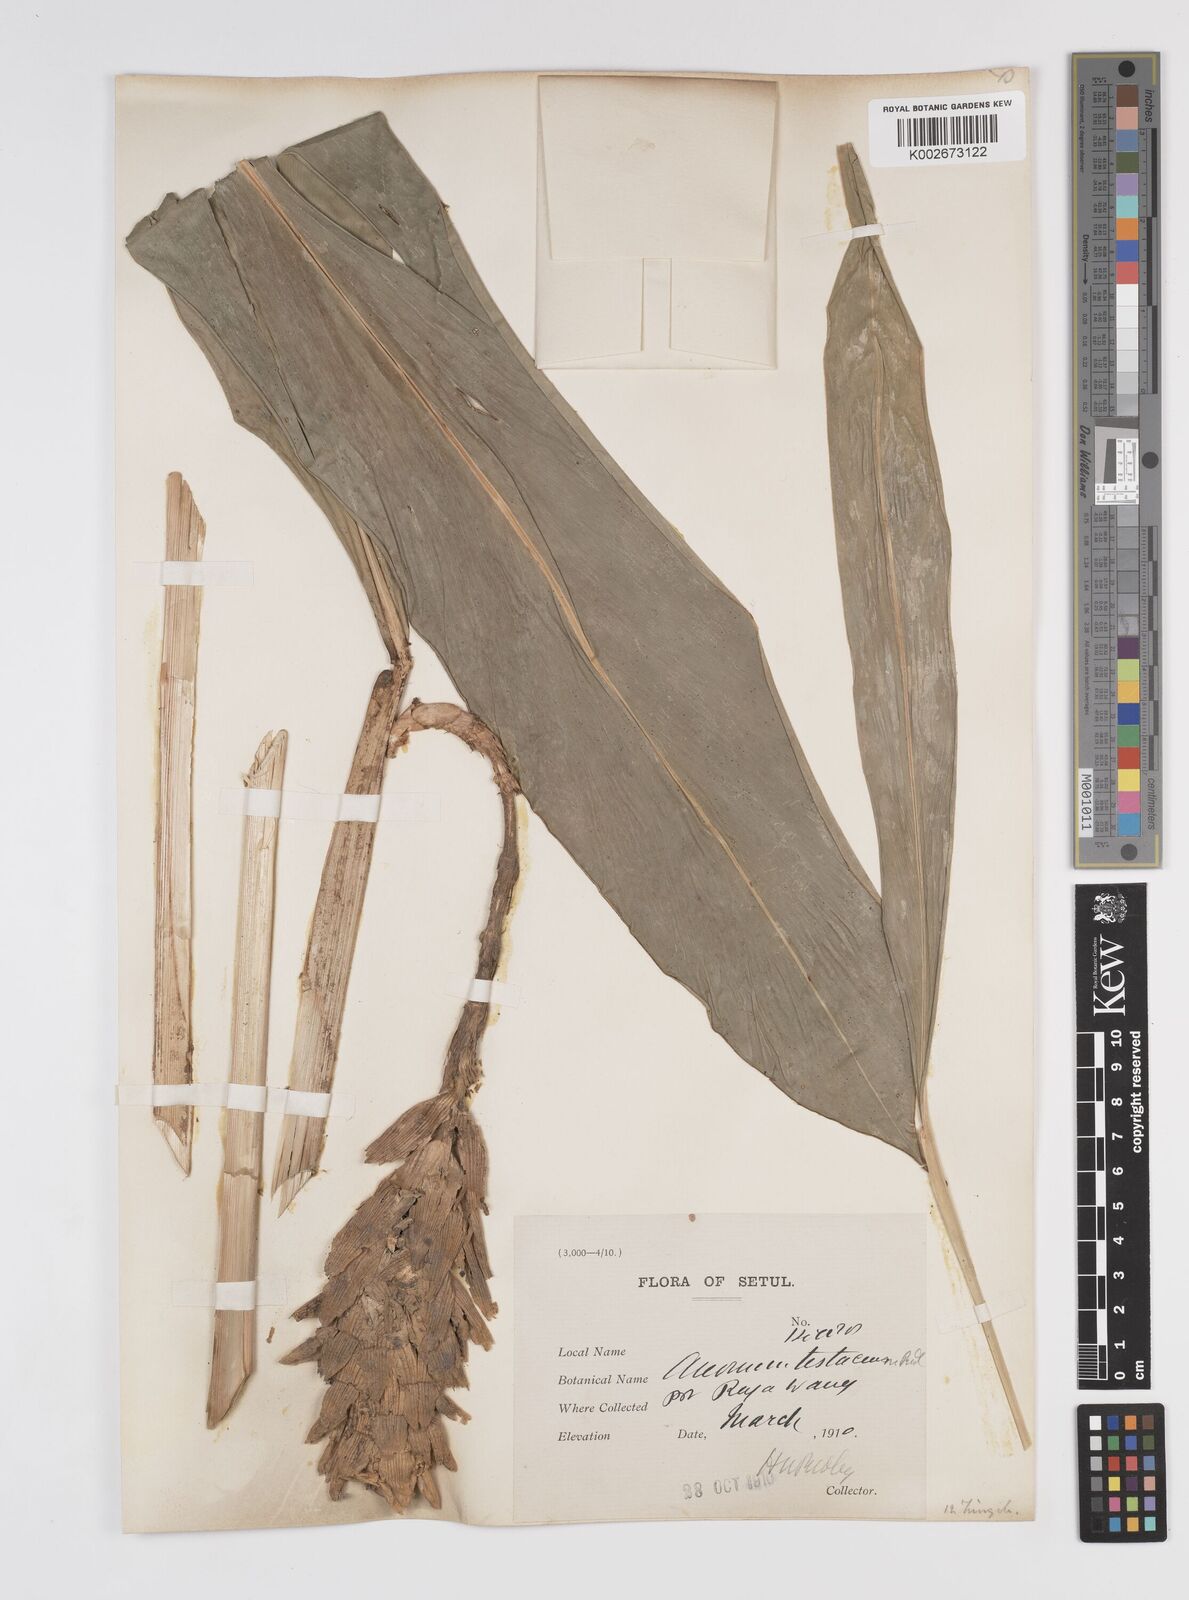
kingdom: Plantae
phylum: Tracheophyta
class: Liliopsida
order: Zingiberales
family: Zingiberaceae
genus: Wurfbainia
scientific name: Wurfbainia testacea
